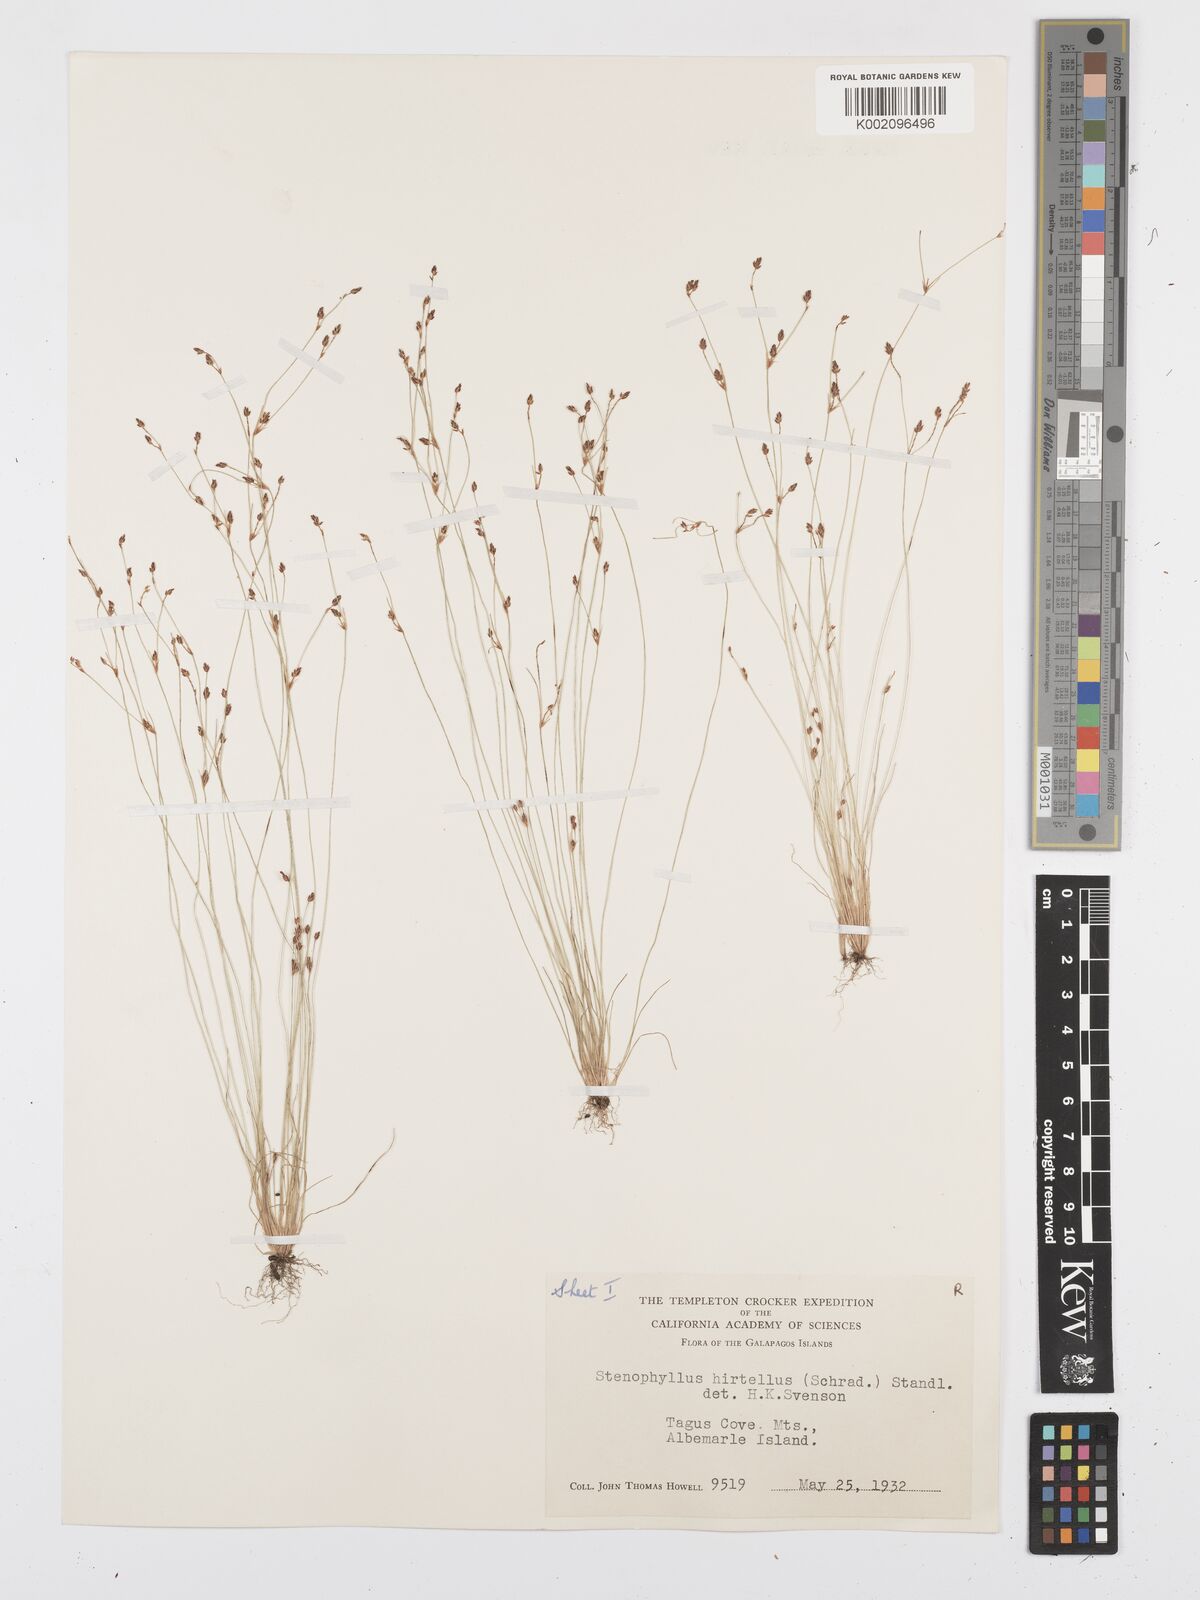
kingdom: Plantae
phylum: Tracheophyta
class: Liliopsida
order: Poales
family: Cyperaceae
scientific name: Cyperaceae
